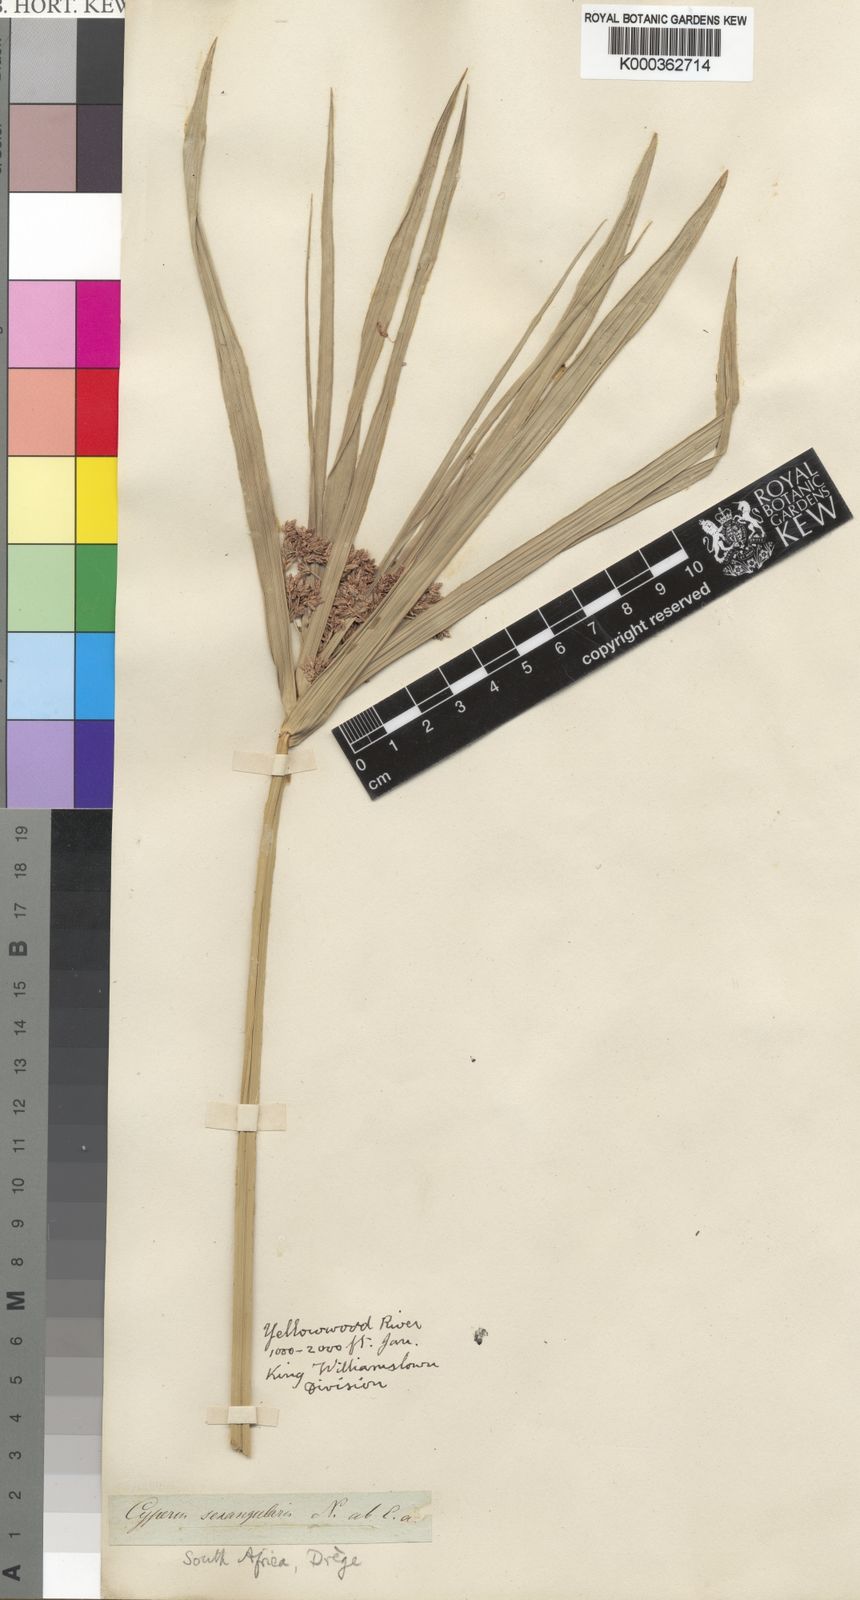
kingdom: Plantae
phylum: Tracheophyta
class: Liliopsida
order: Poales
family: Cyperaceae
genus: Cyperus
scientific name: Cyperus sexangularis
